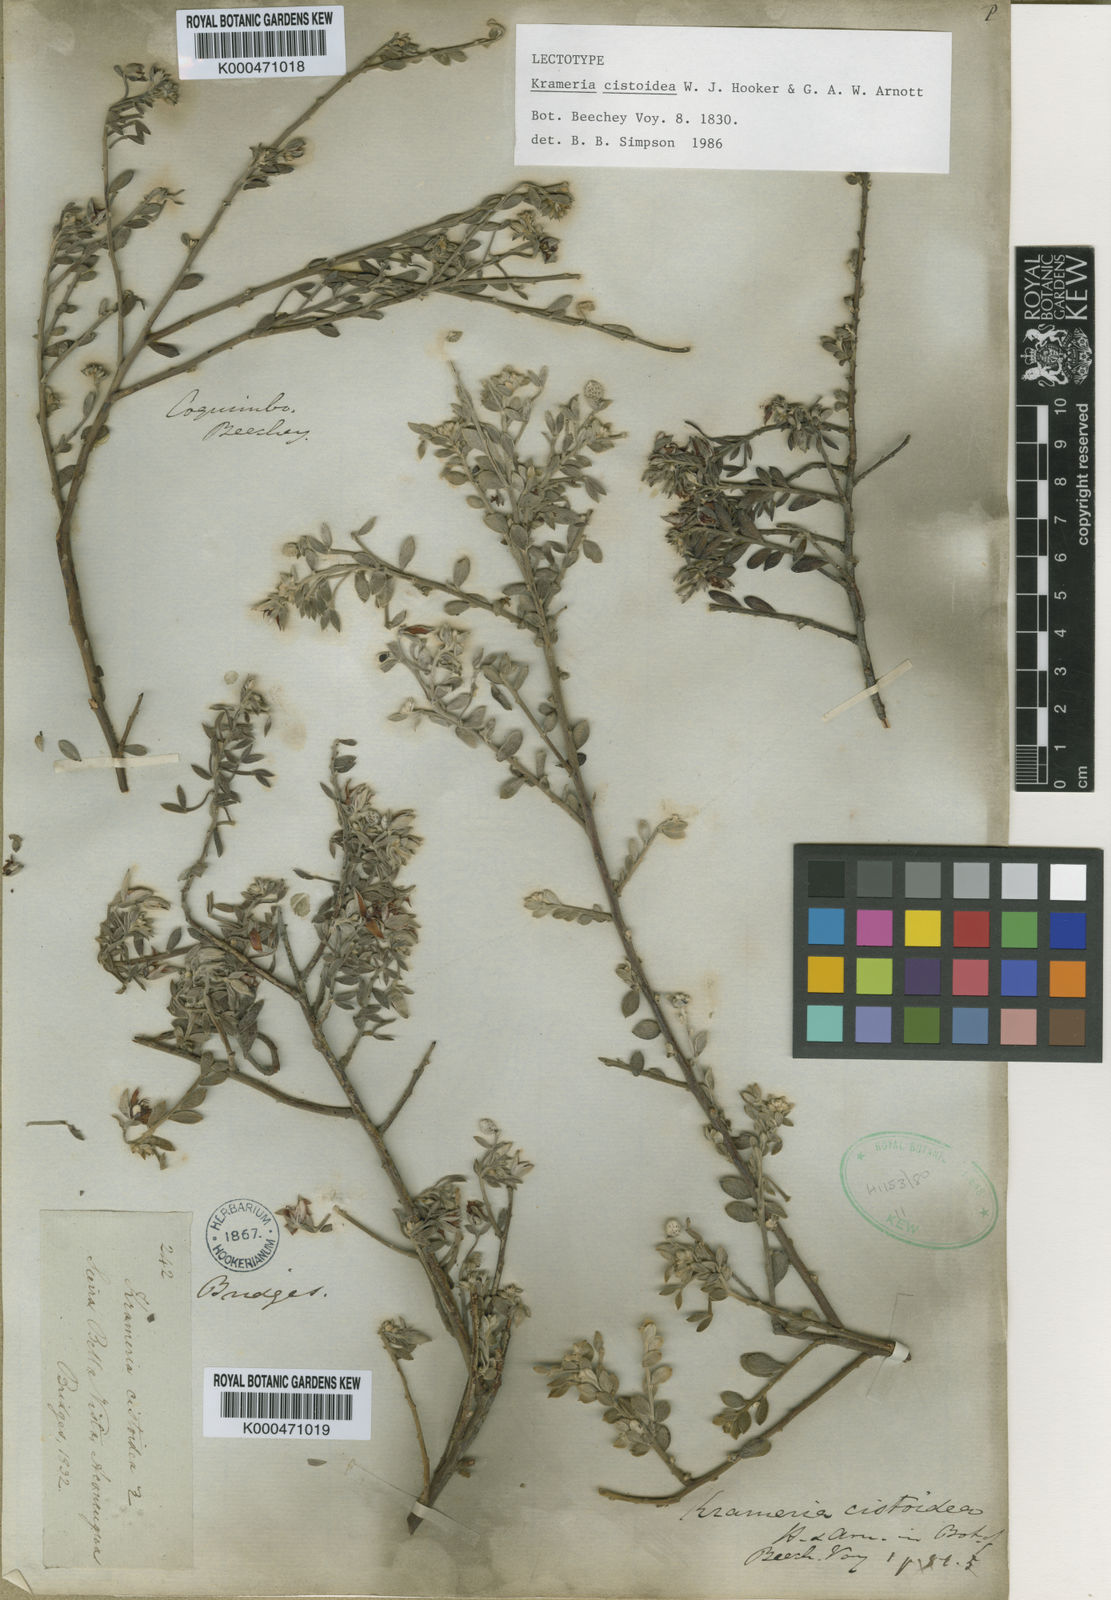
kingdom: Plantae
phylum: Tracheophyta
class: Magnoliopsida
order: Zygophyllales
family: Krameriaceae
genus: Krameria
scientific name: Krameria cistoidea
